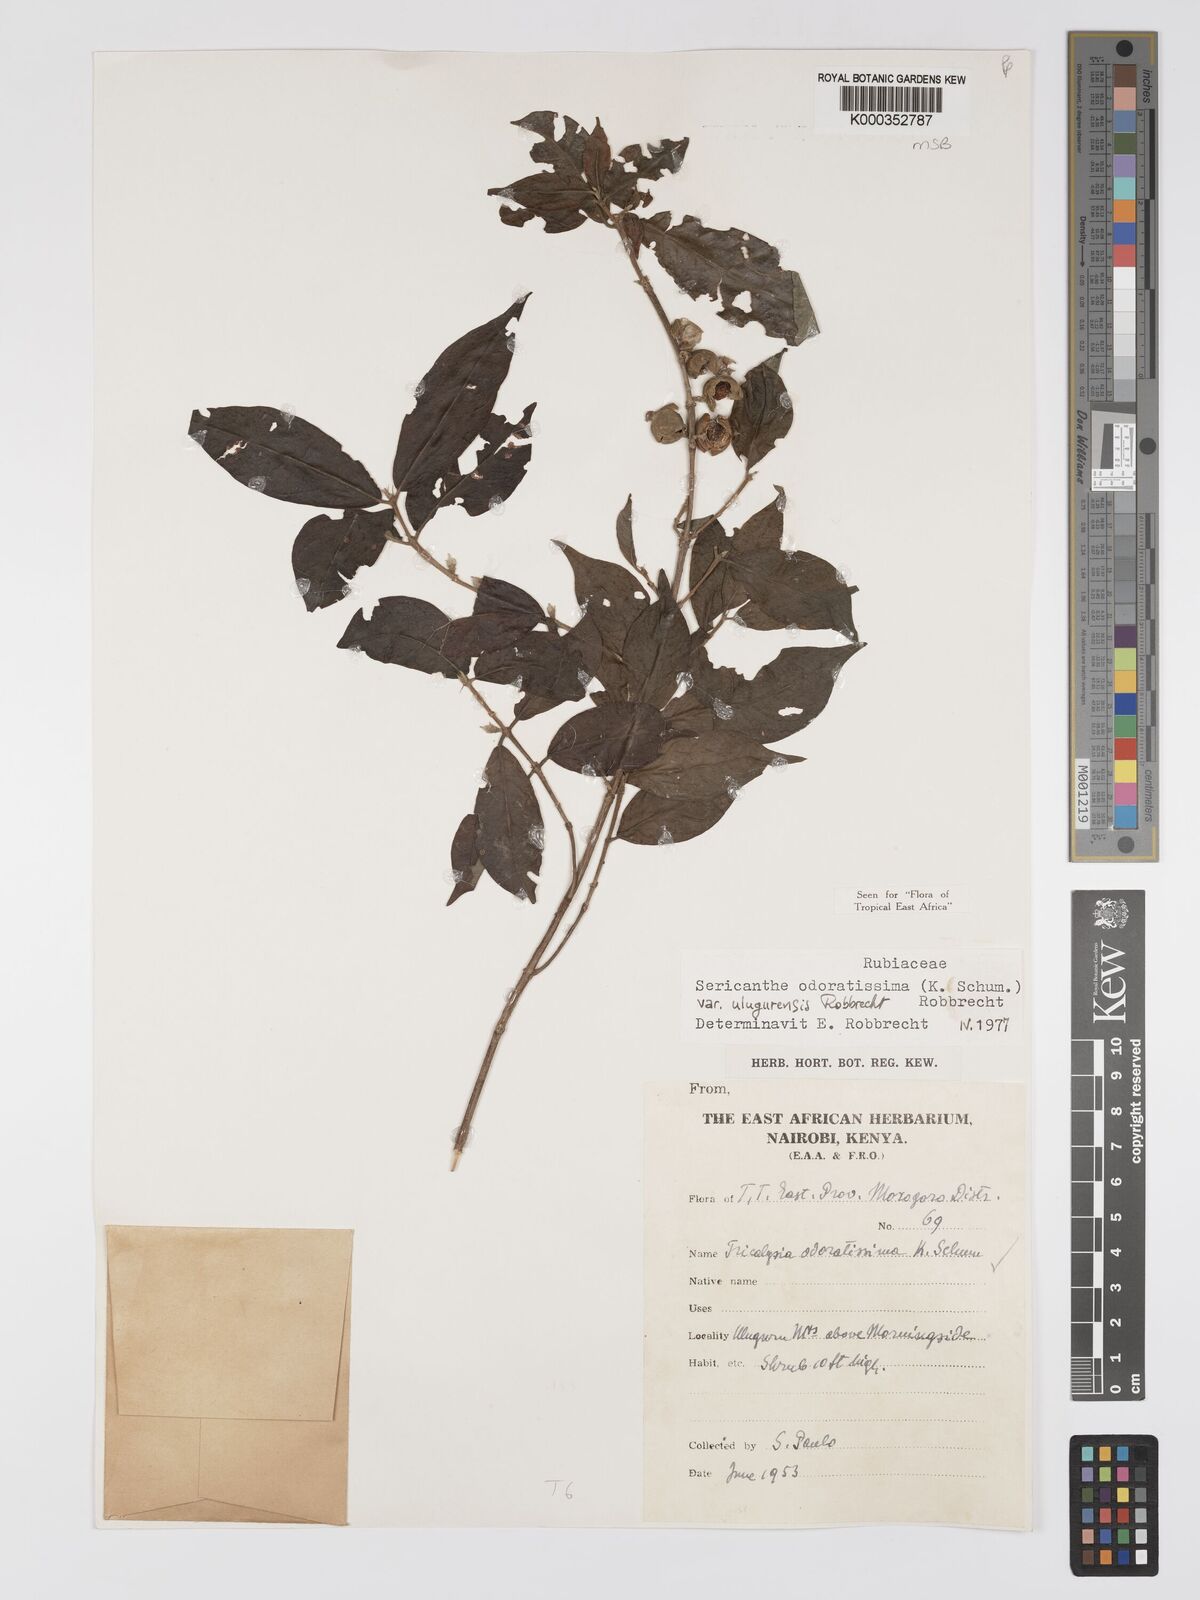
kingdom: Plantae
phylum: Tracheophyta
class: Magnoliopsida
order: Gentianales
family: Rubiaceae
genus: Sericanthe
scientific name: Sericanthe odoratissima
